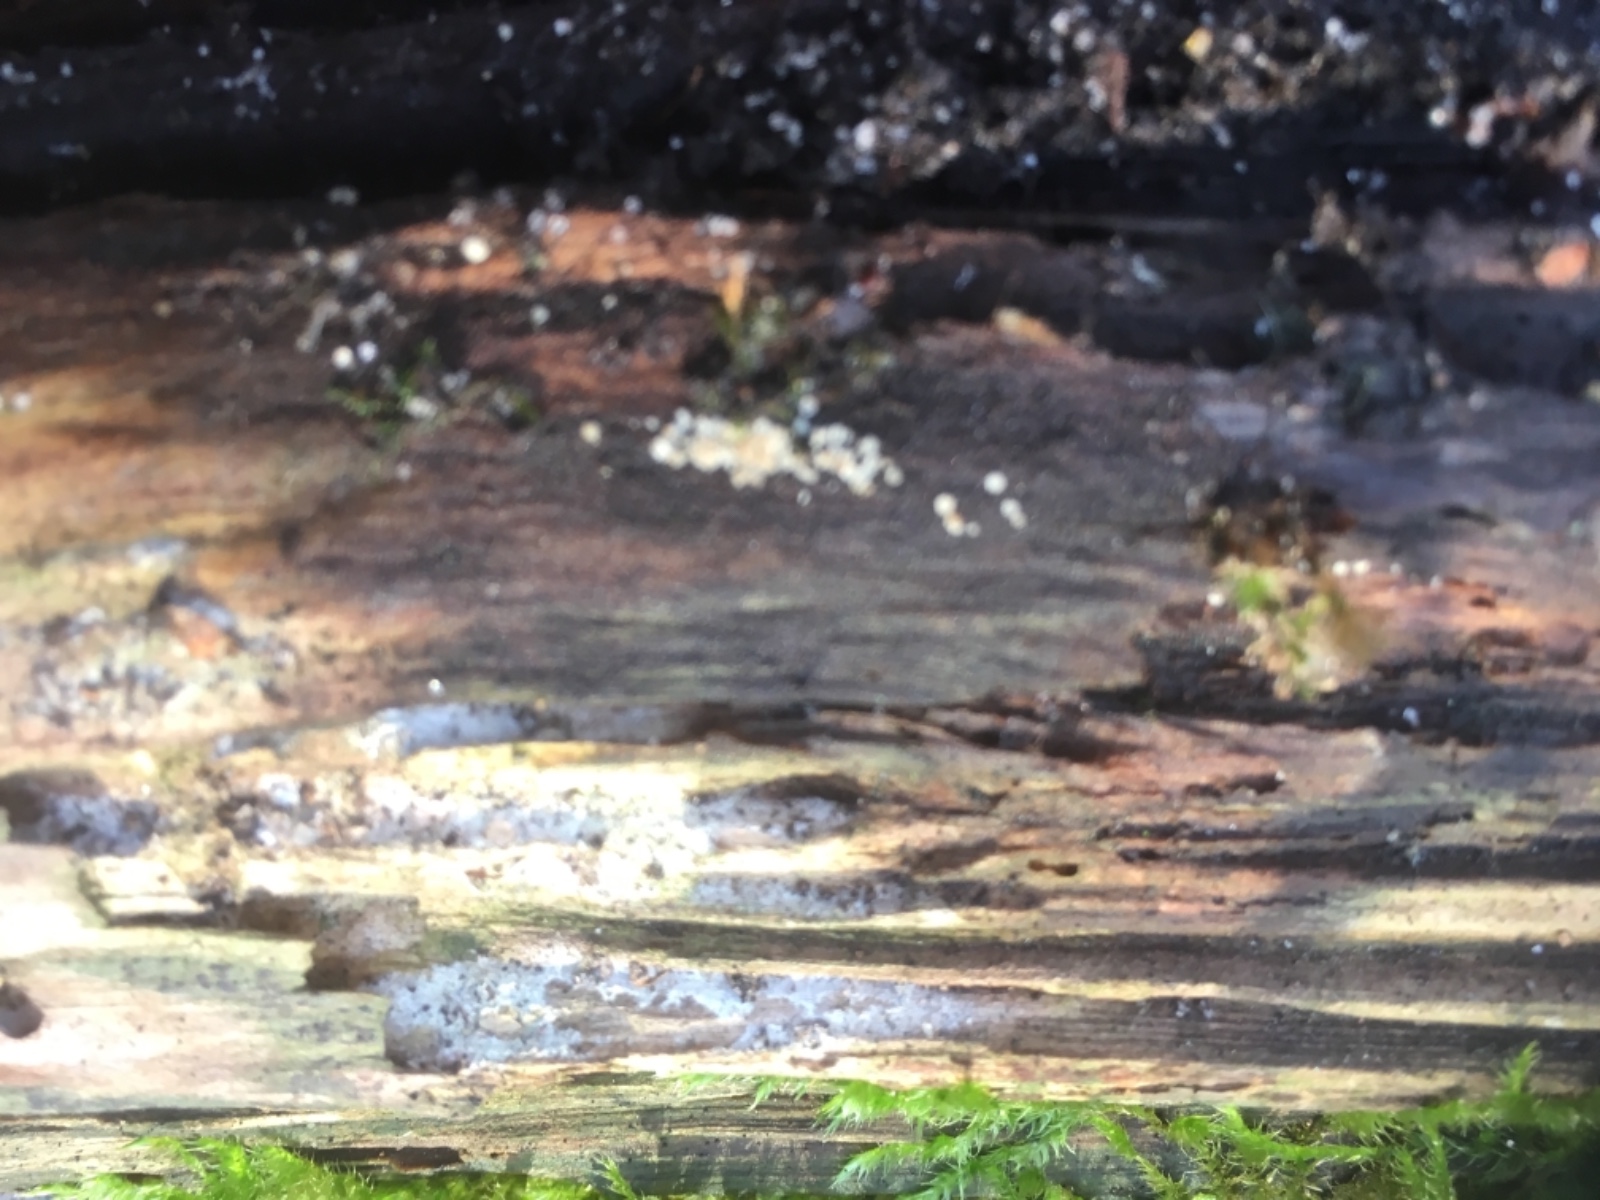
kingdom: Fungi
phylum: Ascomycota
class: Leotiomycetes
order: Helotiales
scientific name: Helotiales
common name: stilkskiveordenen
